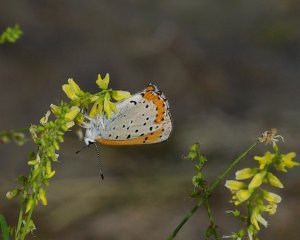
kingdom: Animalia
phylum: Arthropoda
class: Insecta
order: Lepidoptera
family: Sesiidae
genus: Sesia
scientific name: Sesia Lycaena hyllus
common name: Bronze Copper
